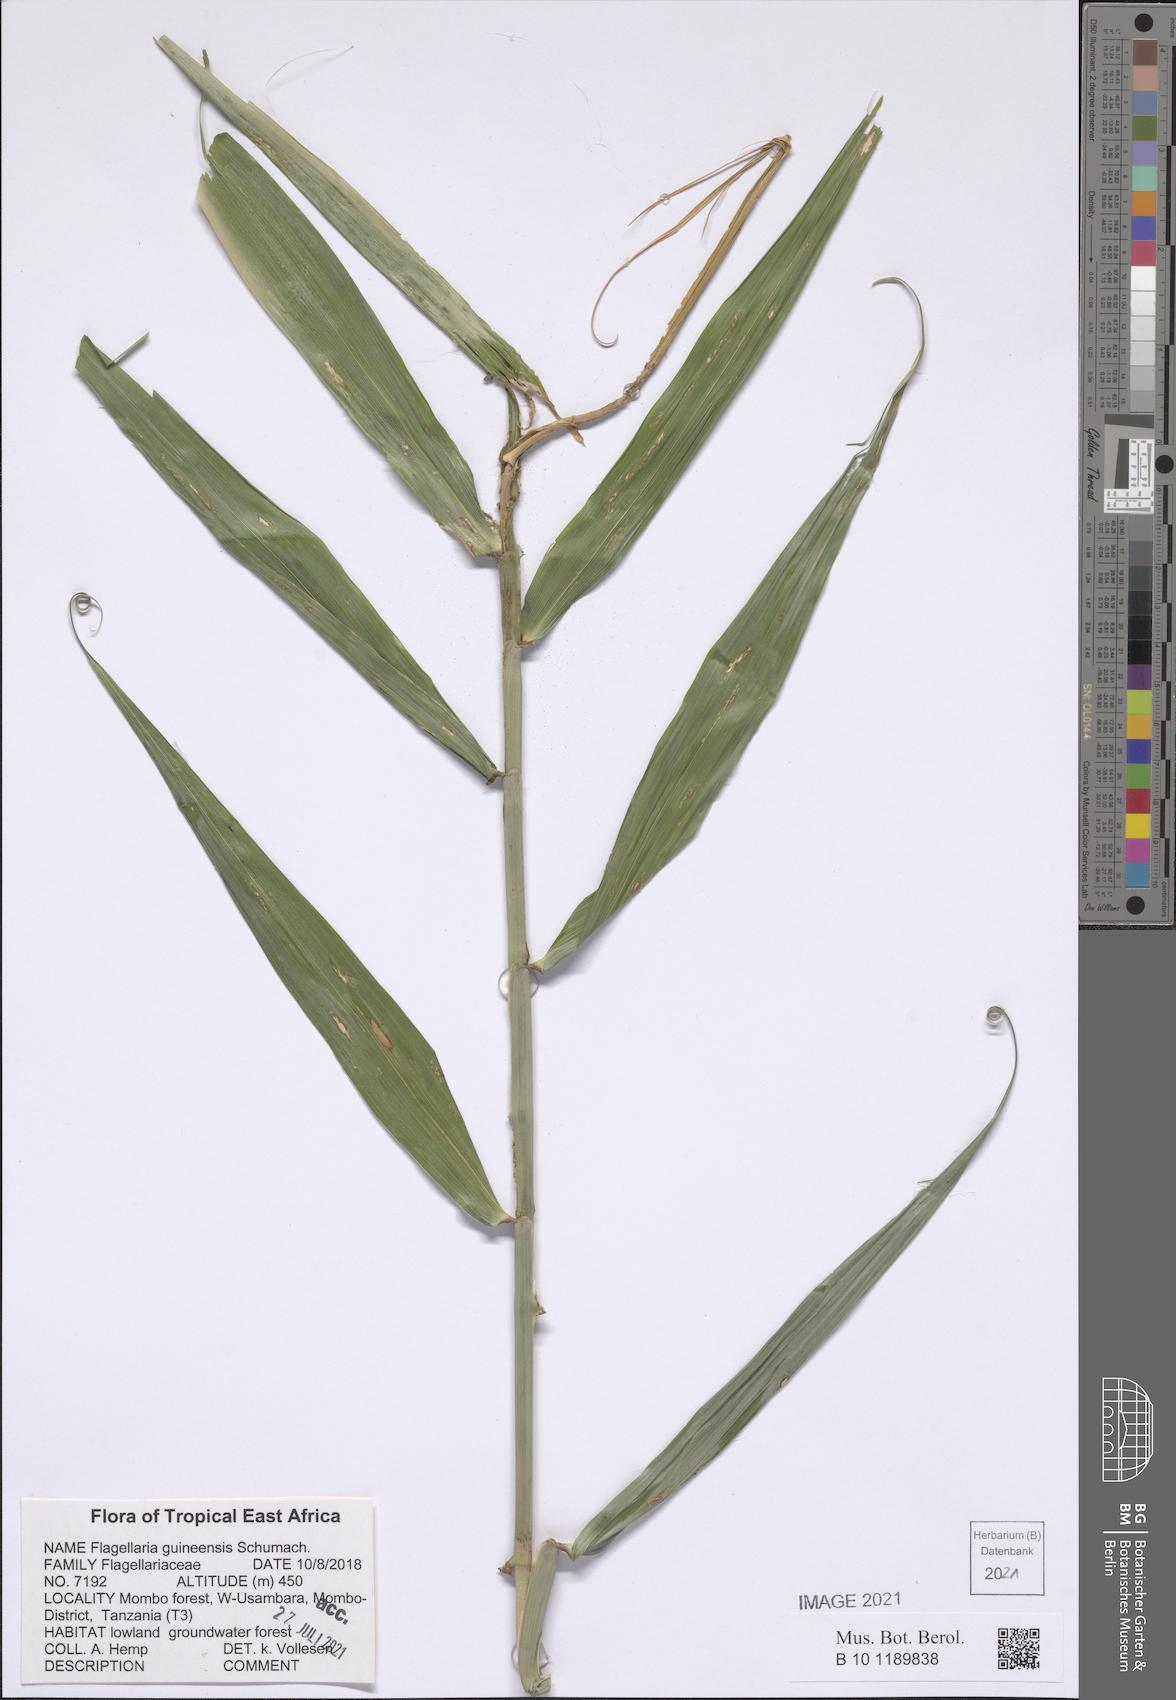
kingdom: Plantae
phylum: Tracheophyta
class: Liliopsida
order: Poales
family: Flagellariaceae
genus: Flagellaria
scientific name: Flagellaria guineensis
